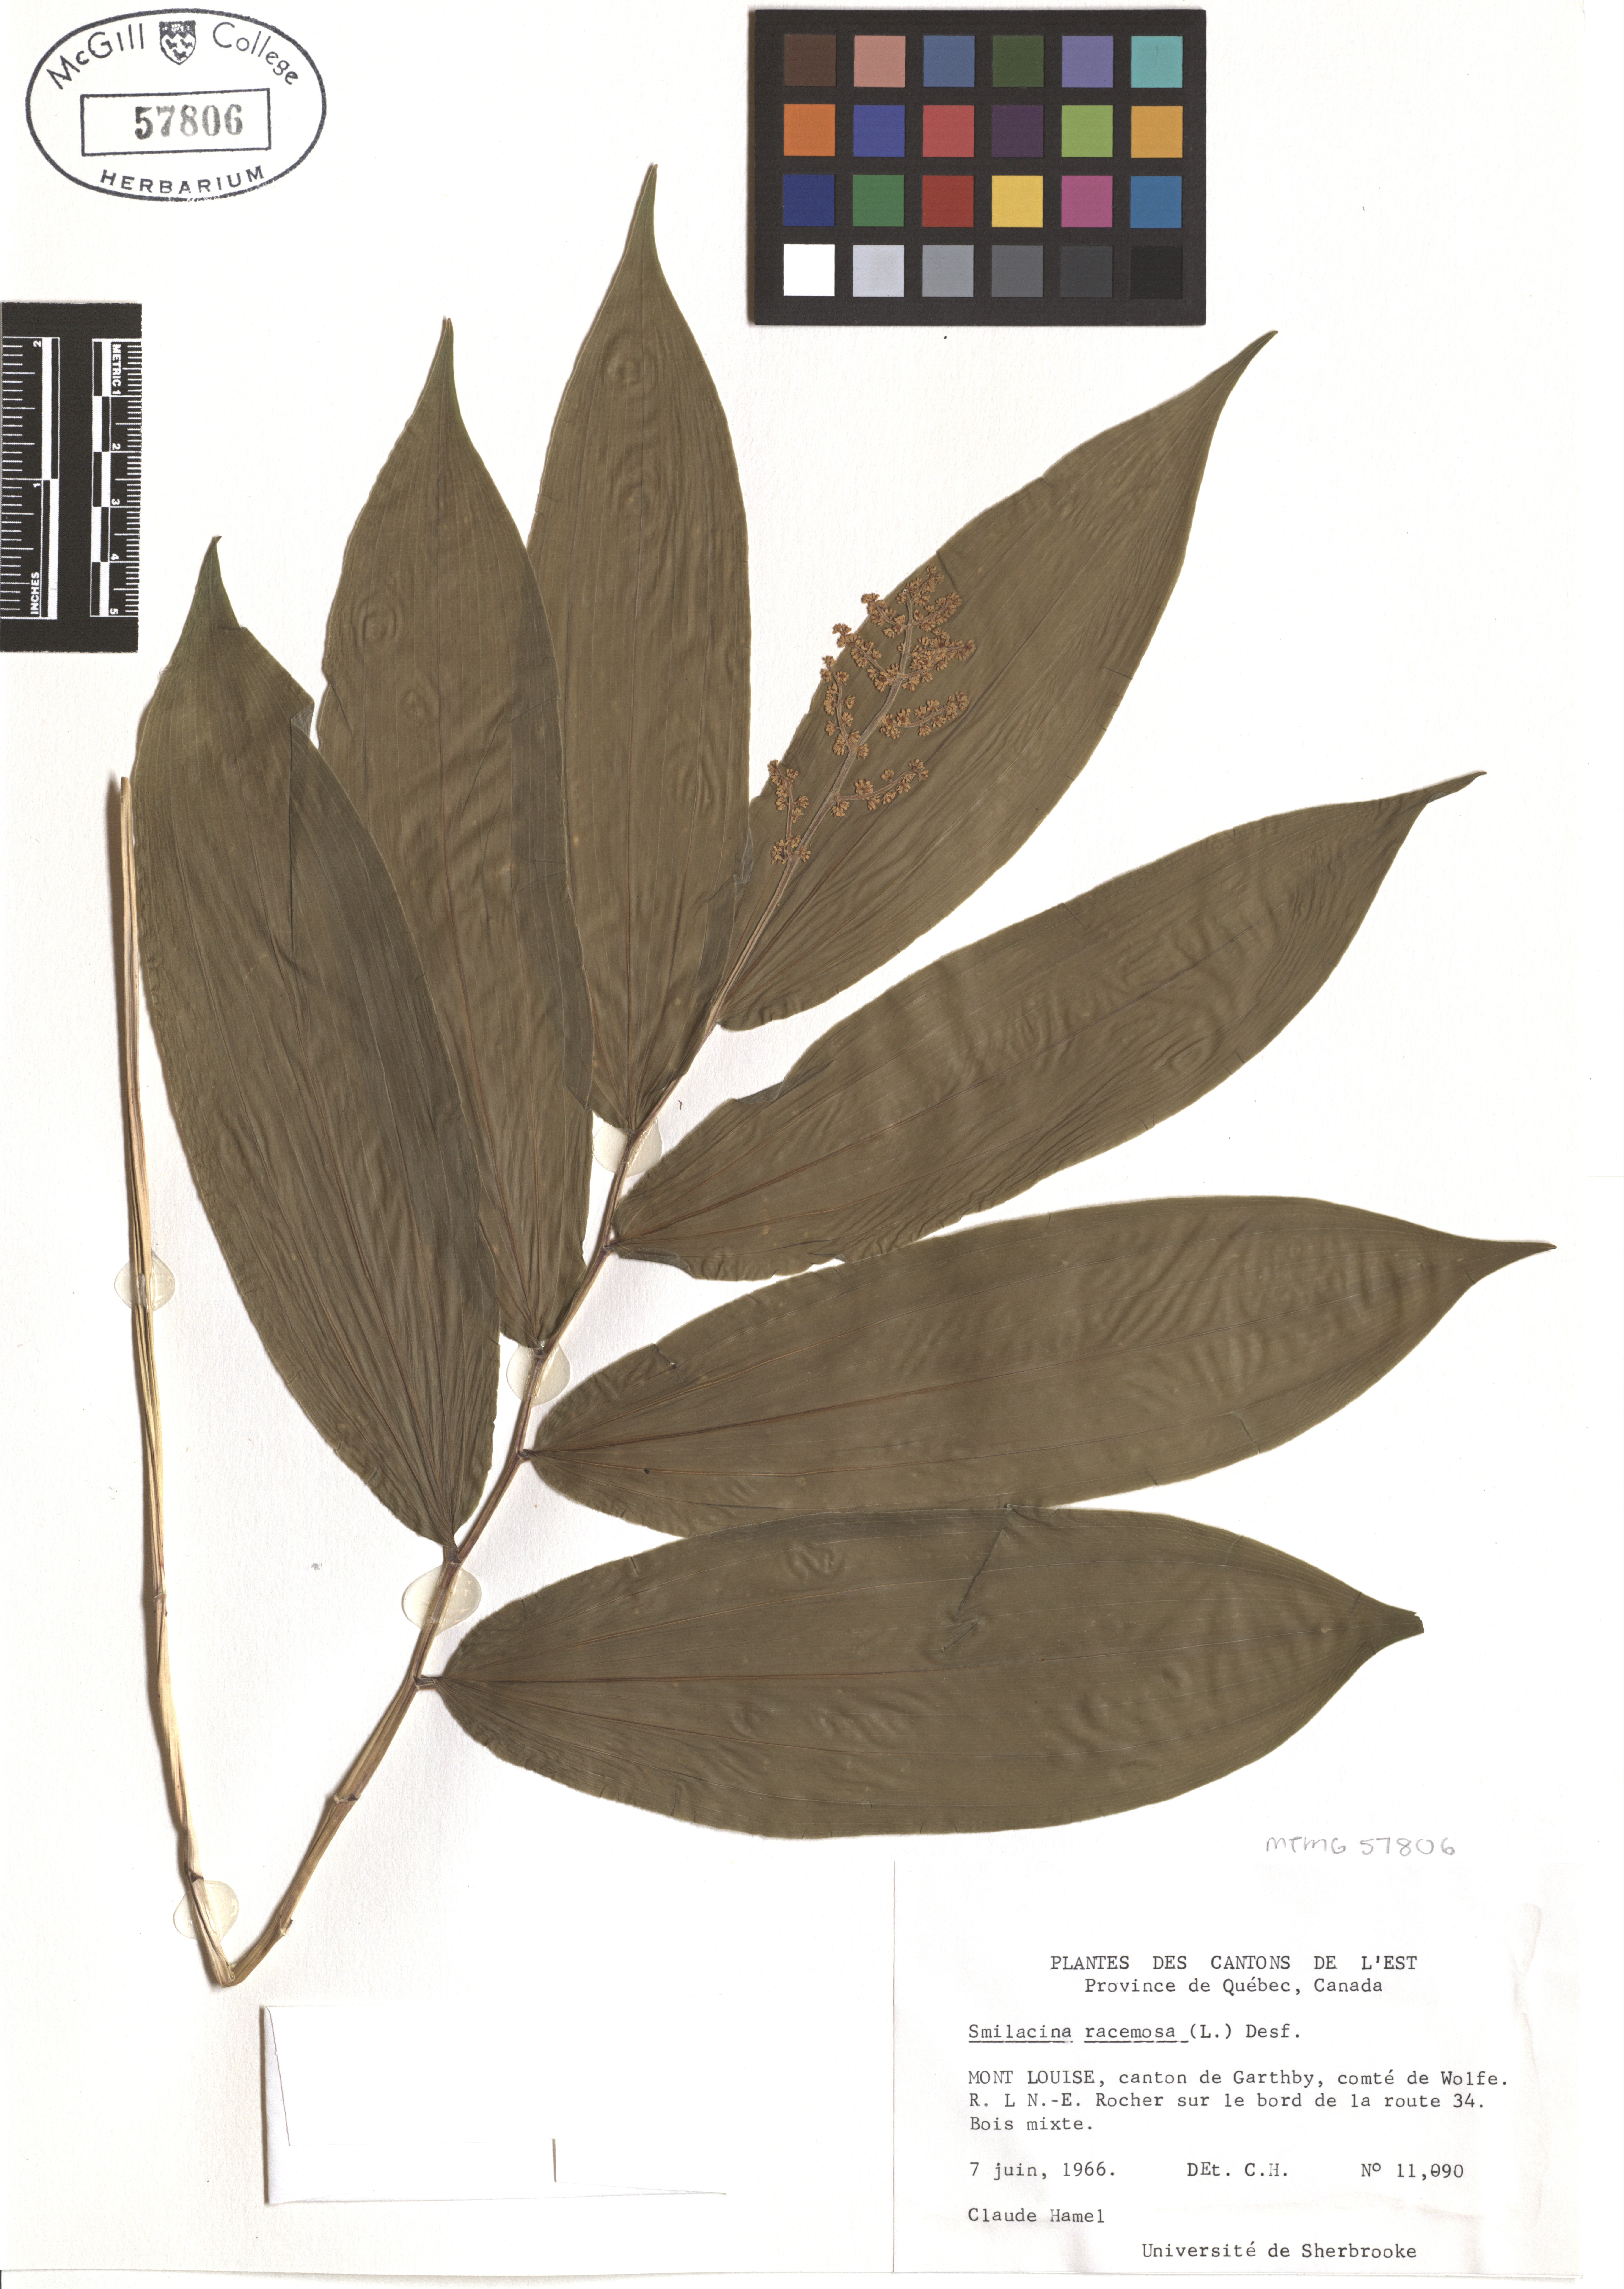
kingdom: Plantae
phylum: Tracheophyta
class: Liliopsida
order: Asparagales
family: Asparagaceae
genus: Maianthemum
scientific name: Maianthemum racemosum
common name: False spikenard
